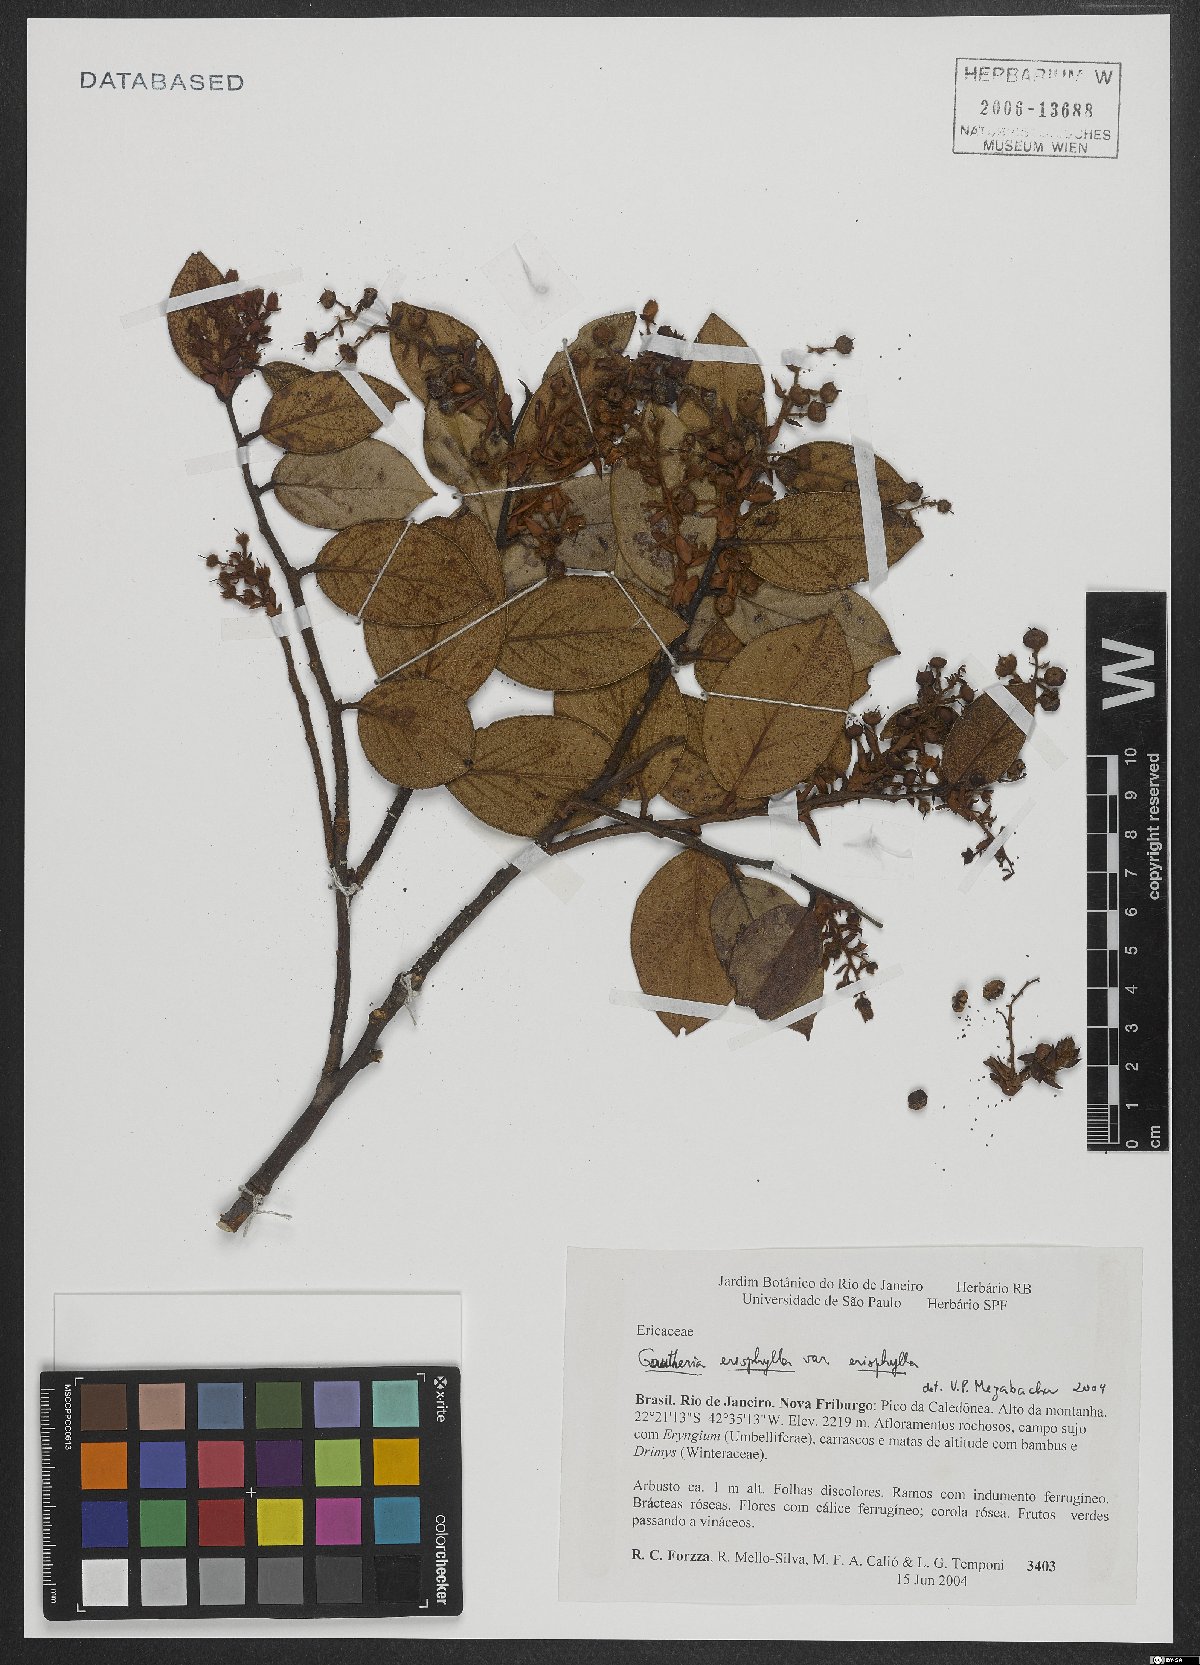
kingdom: Plantae
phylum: Tracheophyta
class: Magnoliopsida
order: Ericales
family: Ericaceae
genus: Gaultheria
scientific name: Gaultheria eriophylla
